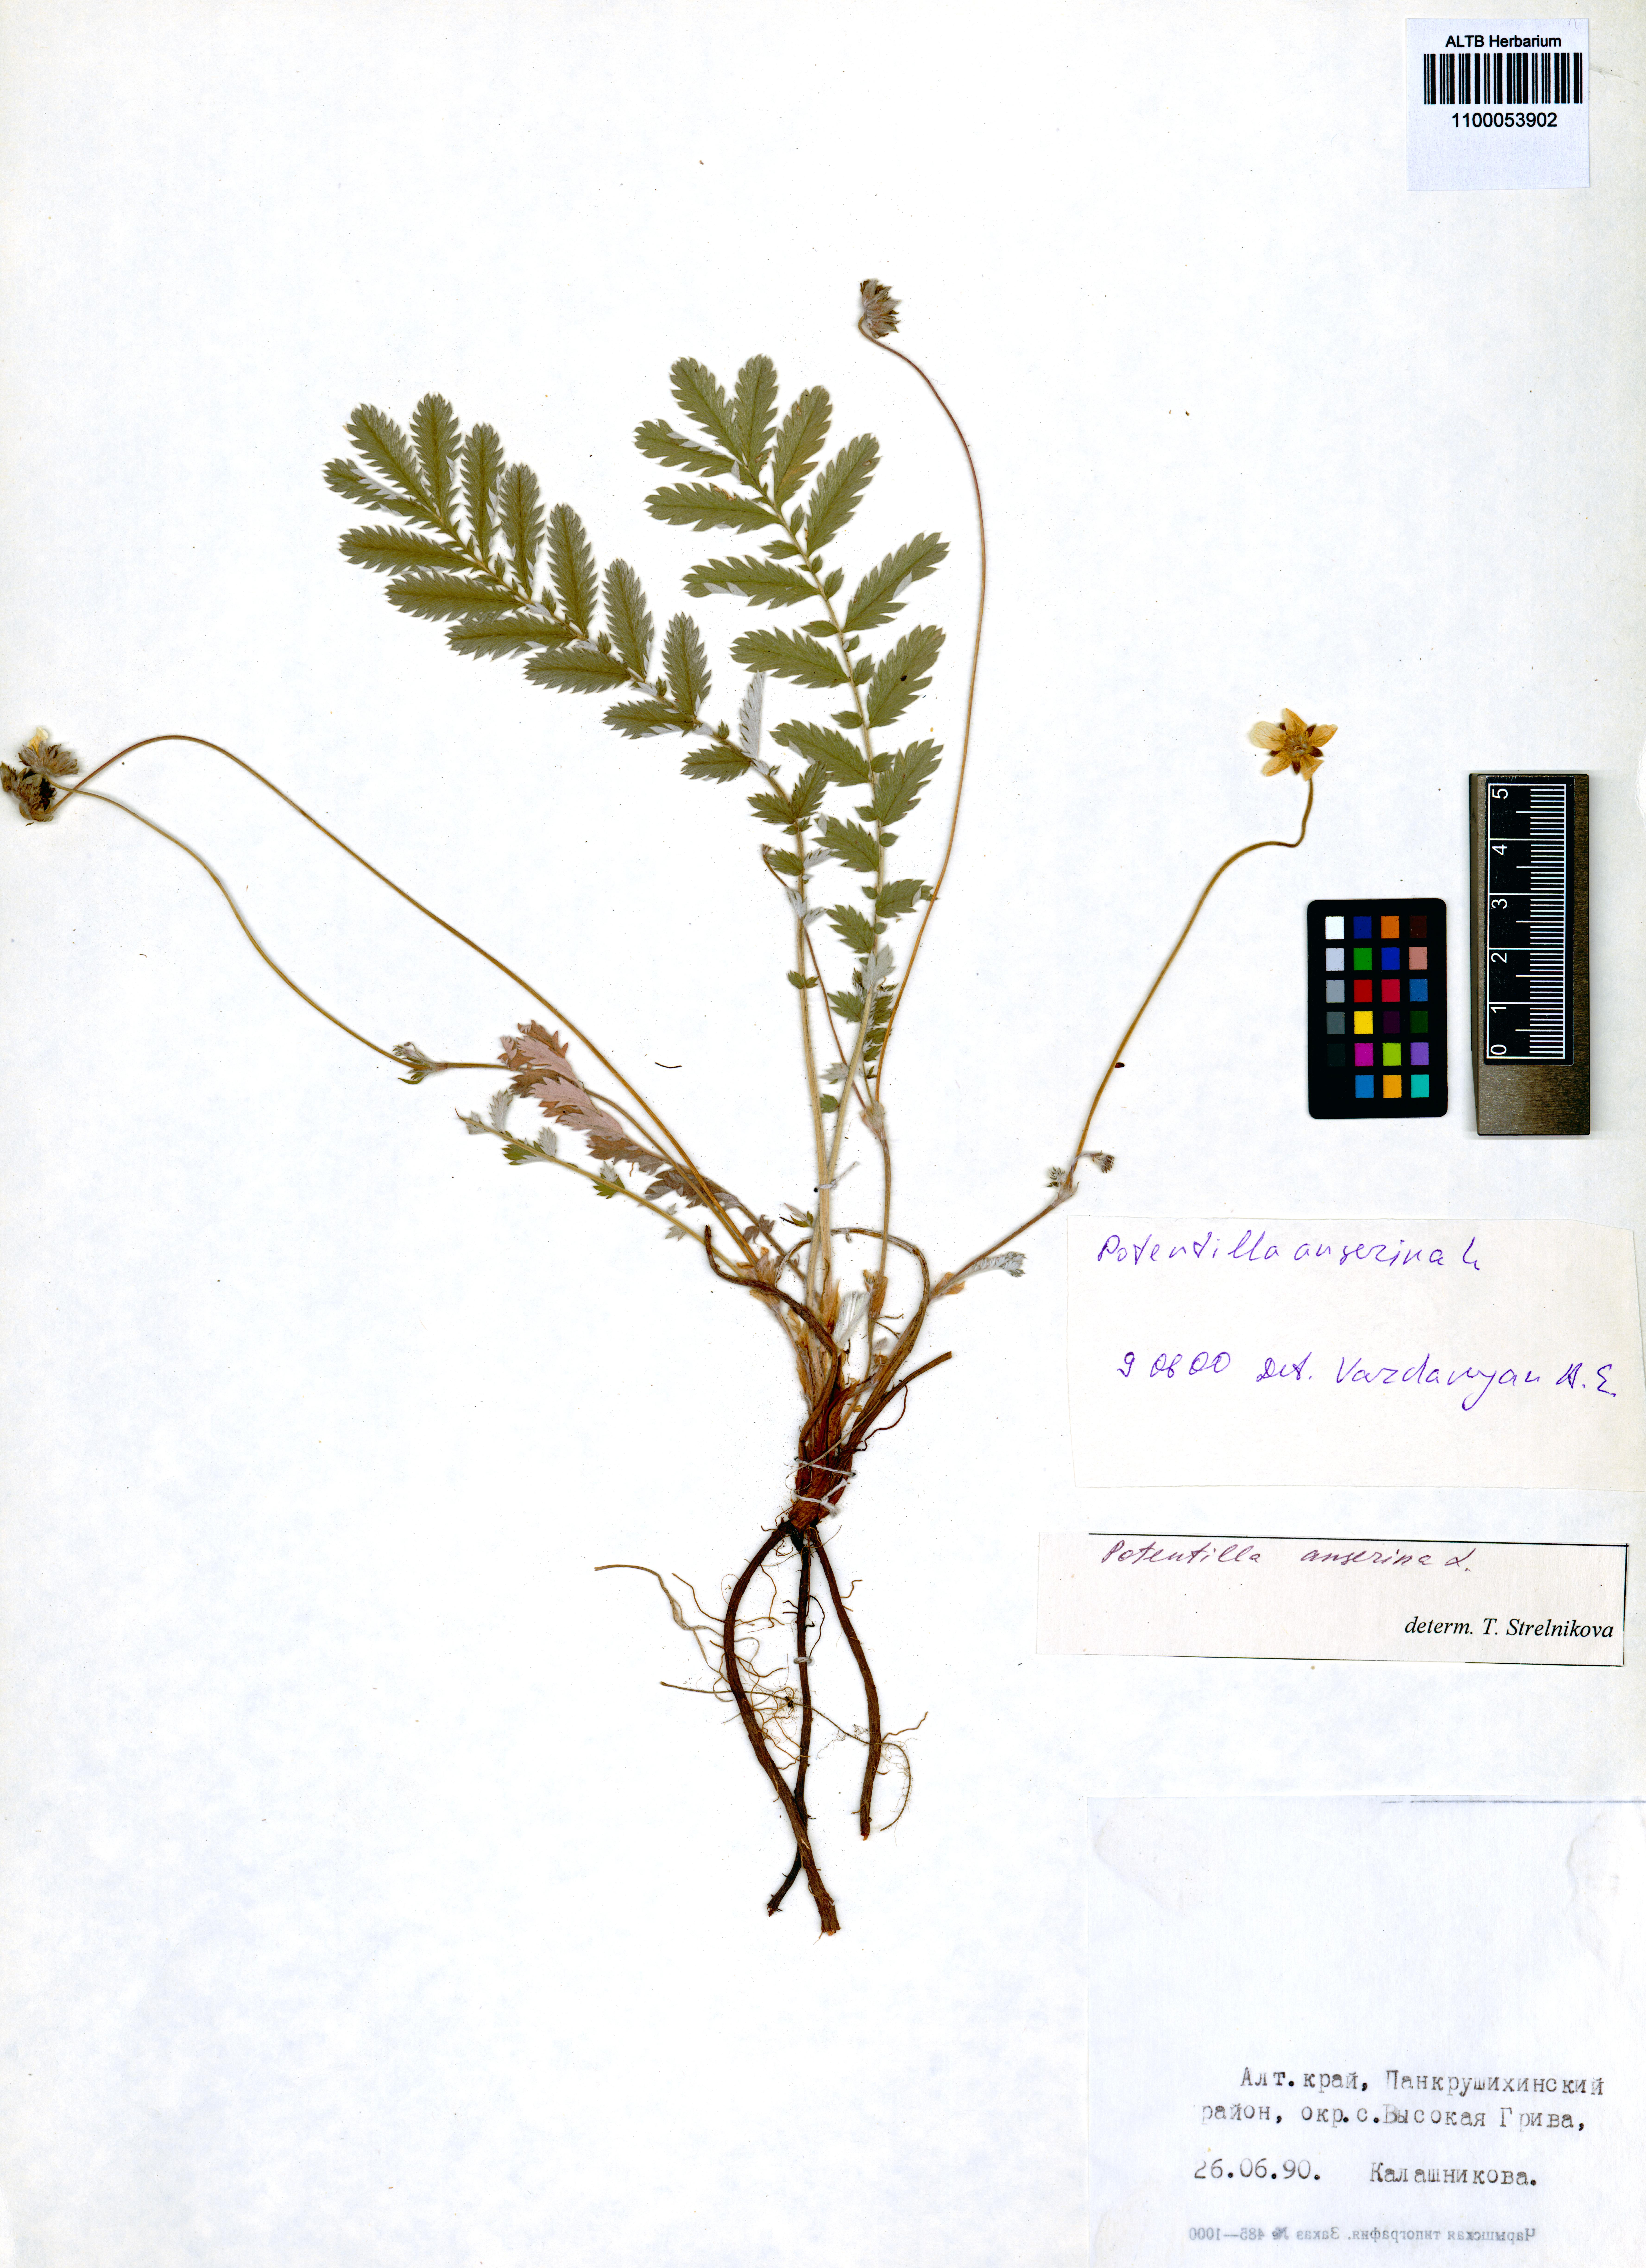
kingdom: Plantae
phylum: Tracheophyta
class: Magnoliopsida
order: Rosales
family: Rosaceae
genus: Argentina
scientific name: Argentina anserina
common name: Common silverweed
